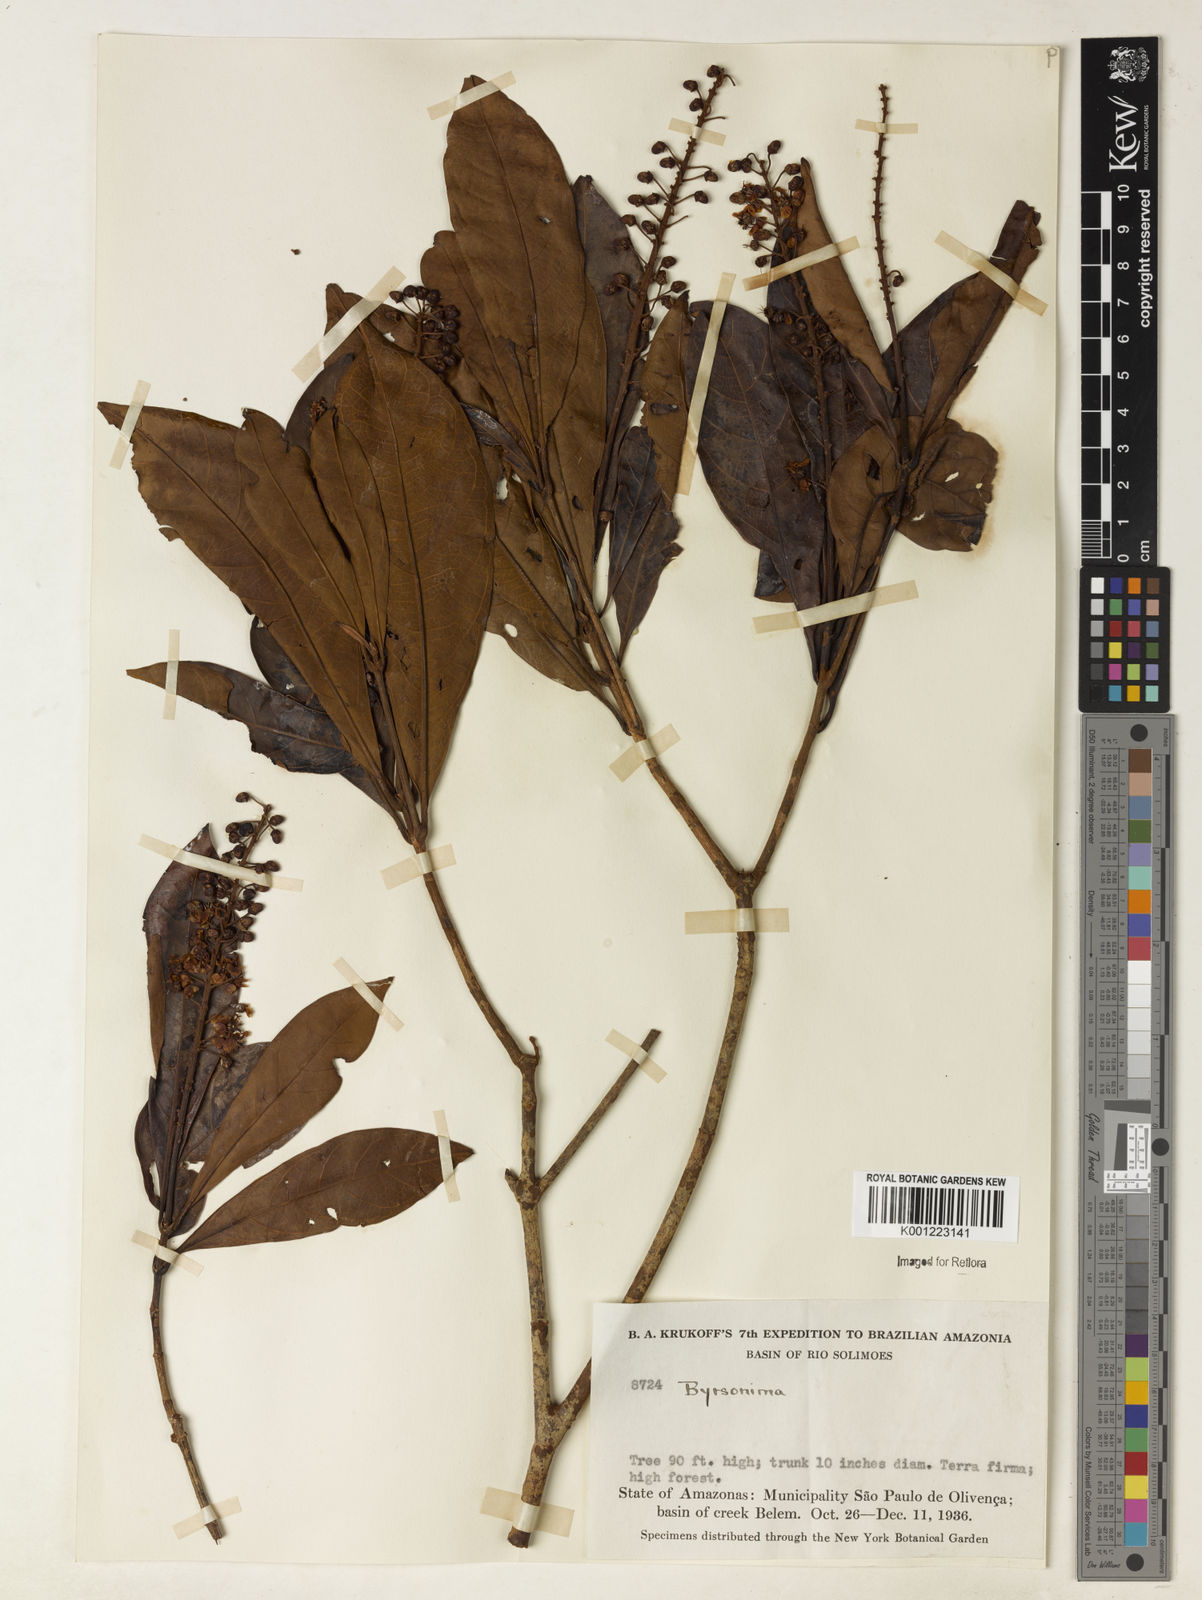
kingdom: Plantae
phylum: Tracheophyta
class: Magnoliopsida
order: Malpighiales
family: Malpighiaceae
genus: Byrsonima
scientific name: Byrsonima
